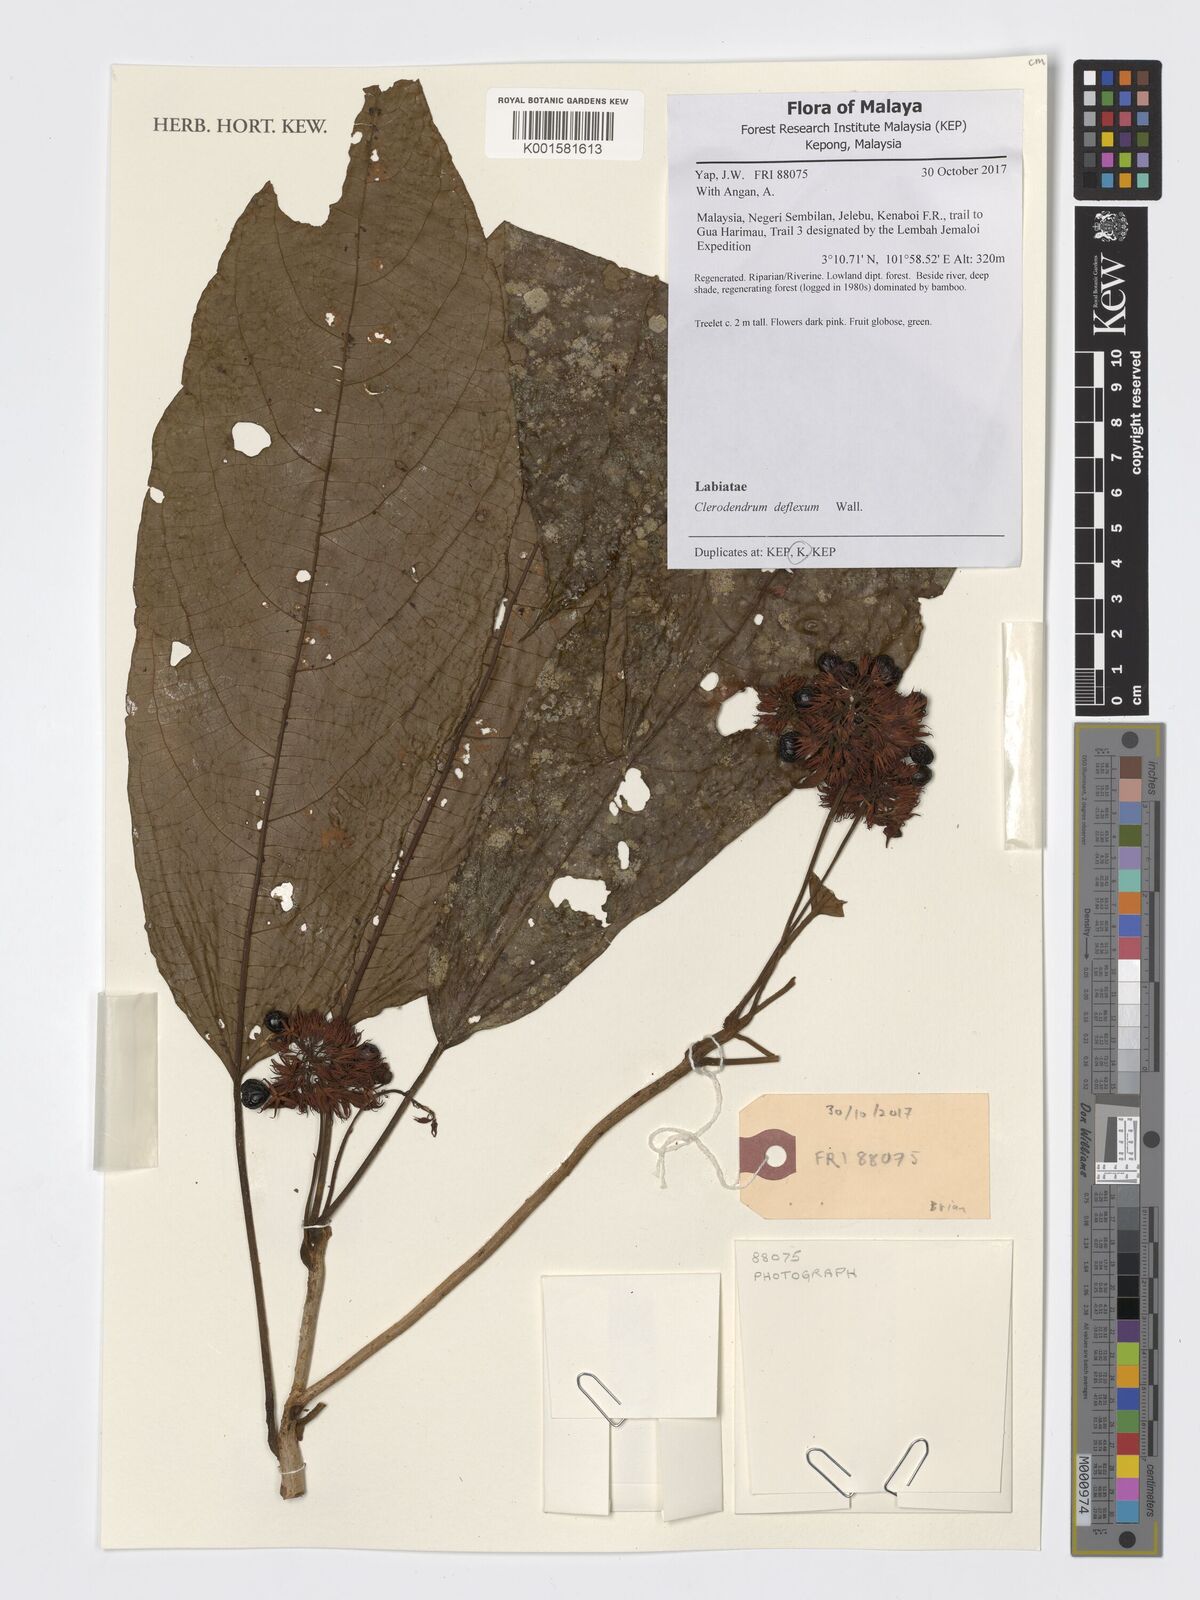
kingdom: Plantae
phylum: Tracheophyta
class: Magnoliopsida
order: Lamiales
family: Lamiaceae
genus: Clerodendrum
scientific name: Clerodendrum deflexum
